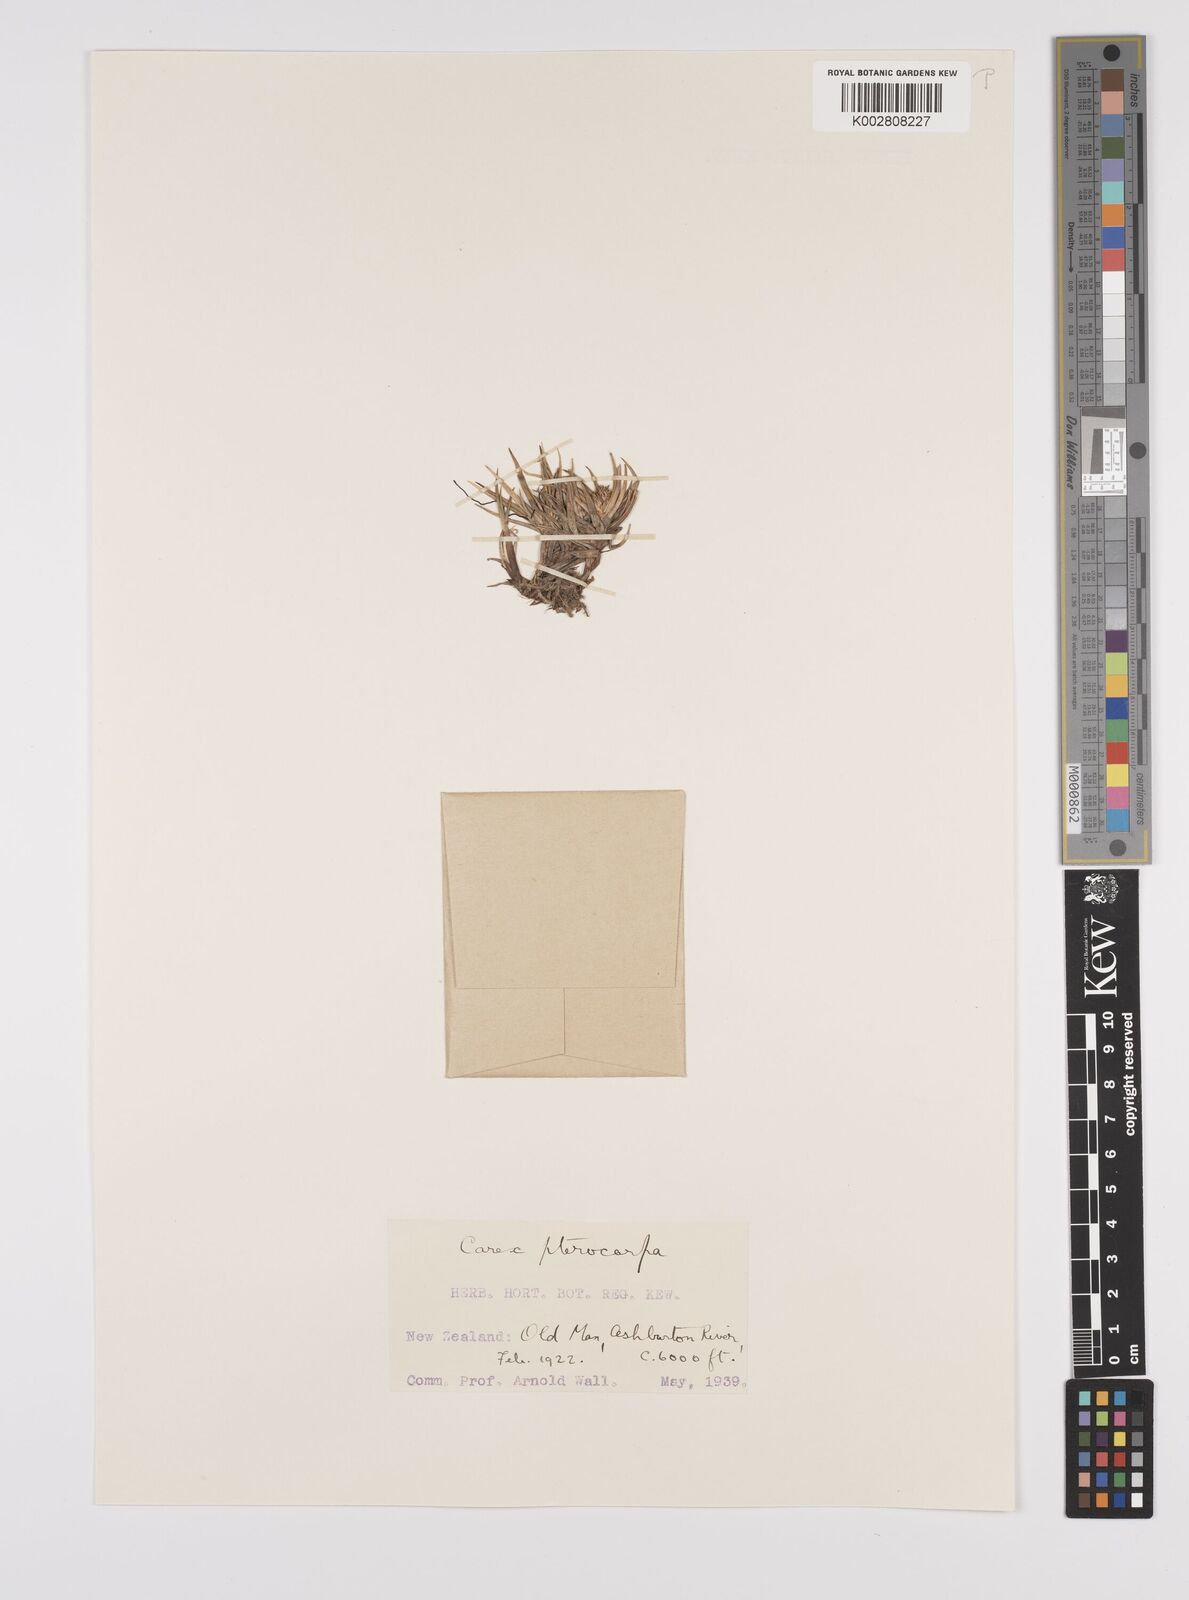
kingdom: Plantae
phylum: Tracheophyta
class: Liliopsida
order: Poales
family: Cyperaceae
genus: Carex
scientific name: Carex pterocarpa
